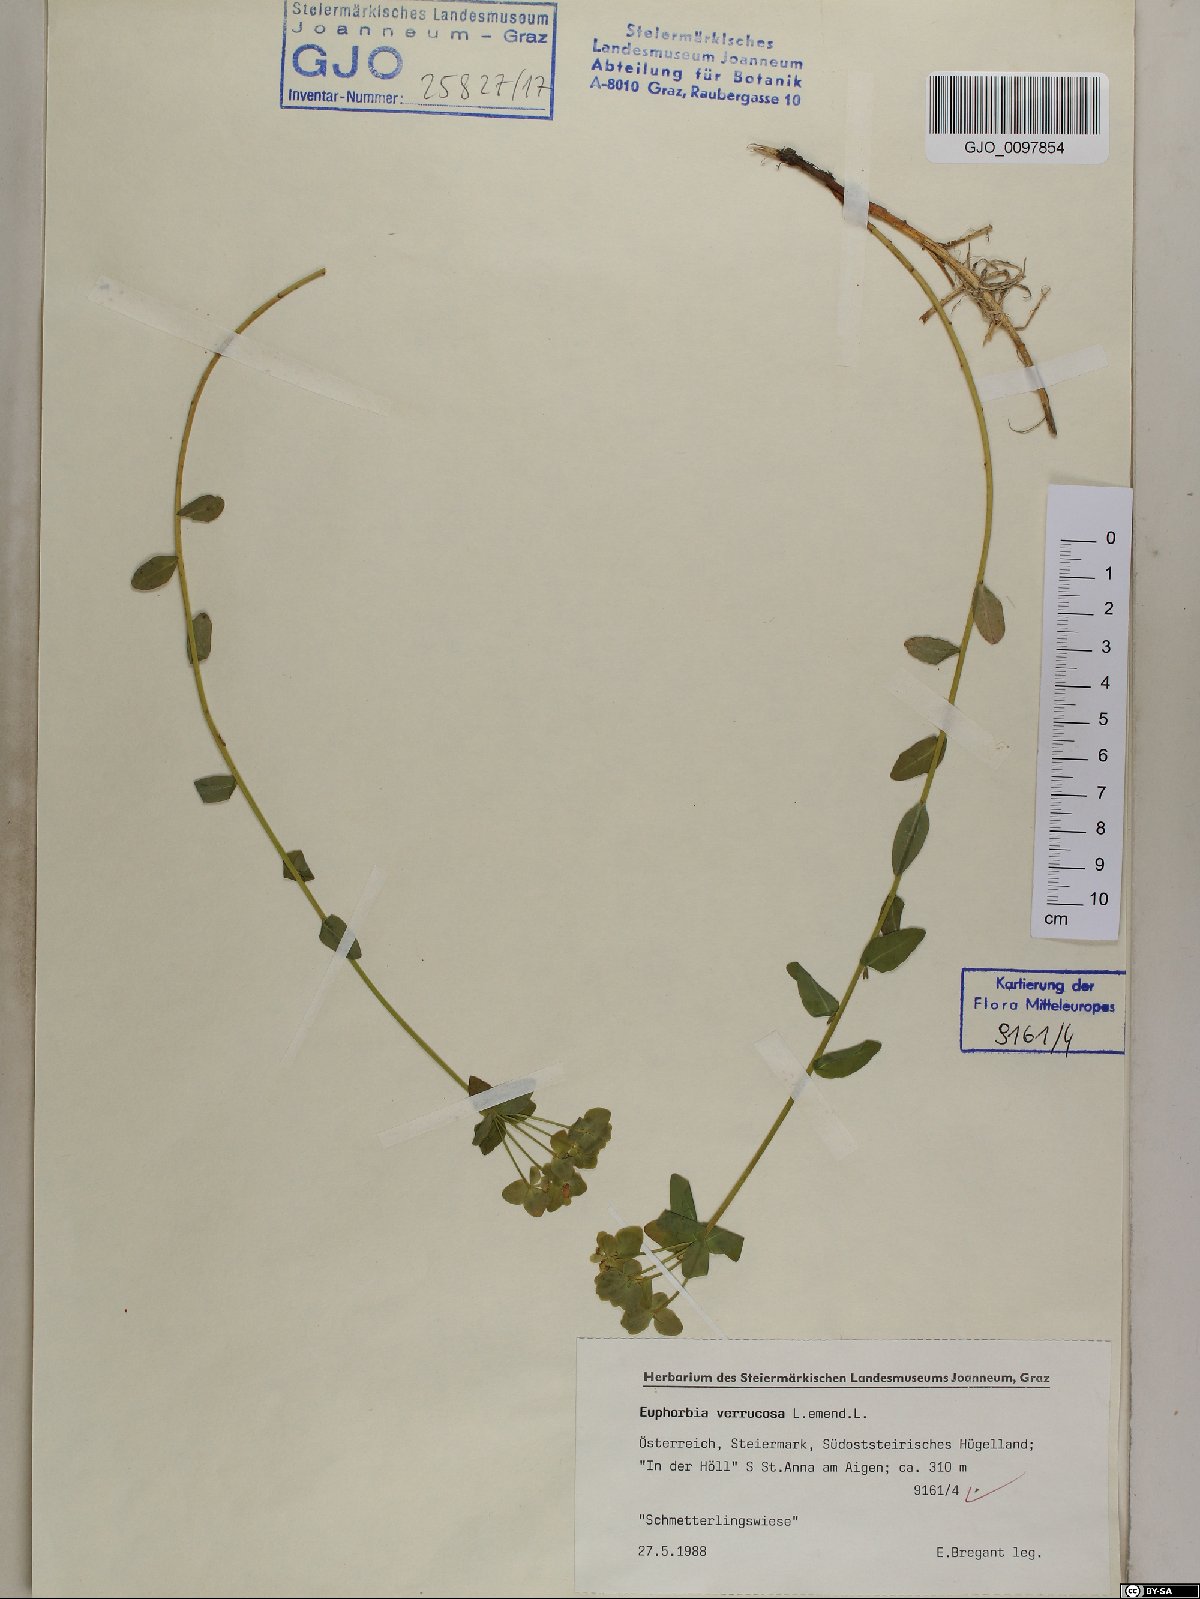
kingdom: Plantae
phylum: Tracheophyta
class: Magnoliopsida
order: Malpighiales
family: Euphorbiaceae
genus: Euphorbia
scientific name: Euphorbia verrucosa
